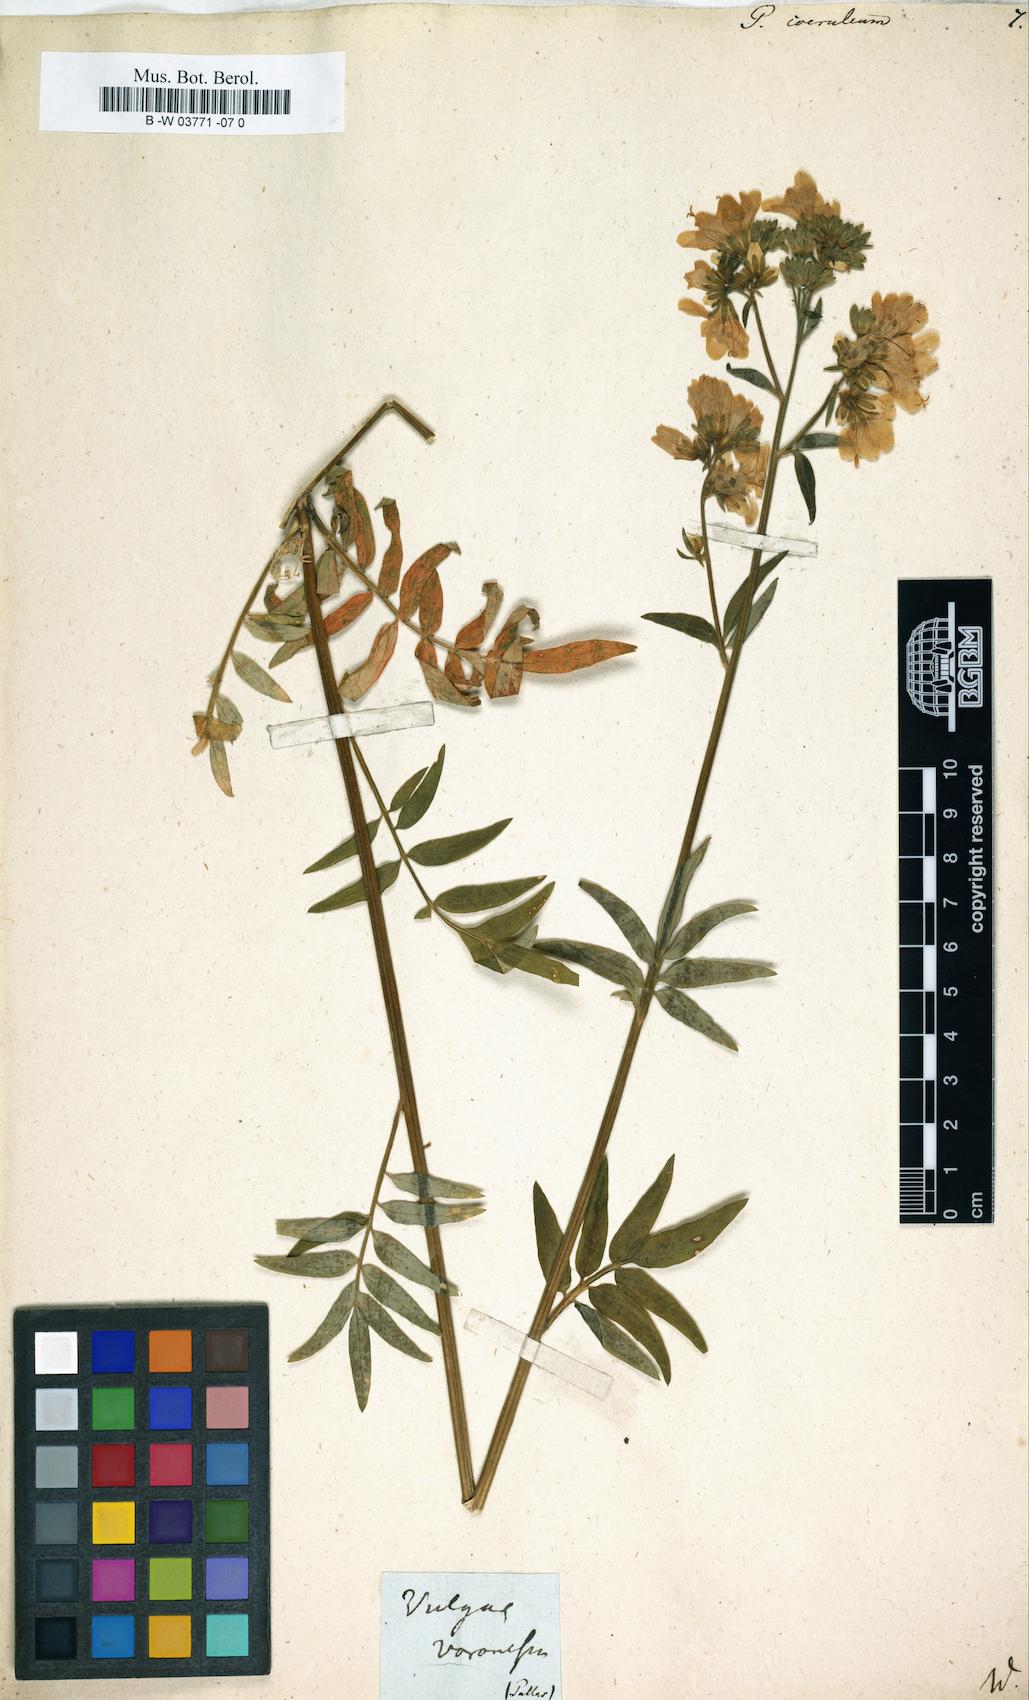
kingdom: Plantae
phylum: Tracheophyta
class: Magnoliopsida
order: Ericales
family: Polemoniaceae
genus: Polemonium
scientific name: Polemonium caeruleum
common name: Jacob's-ladder
